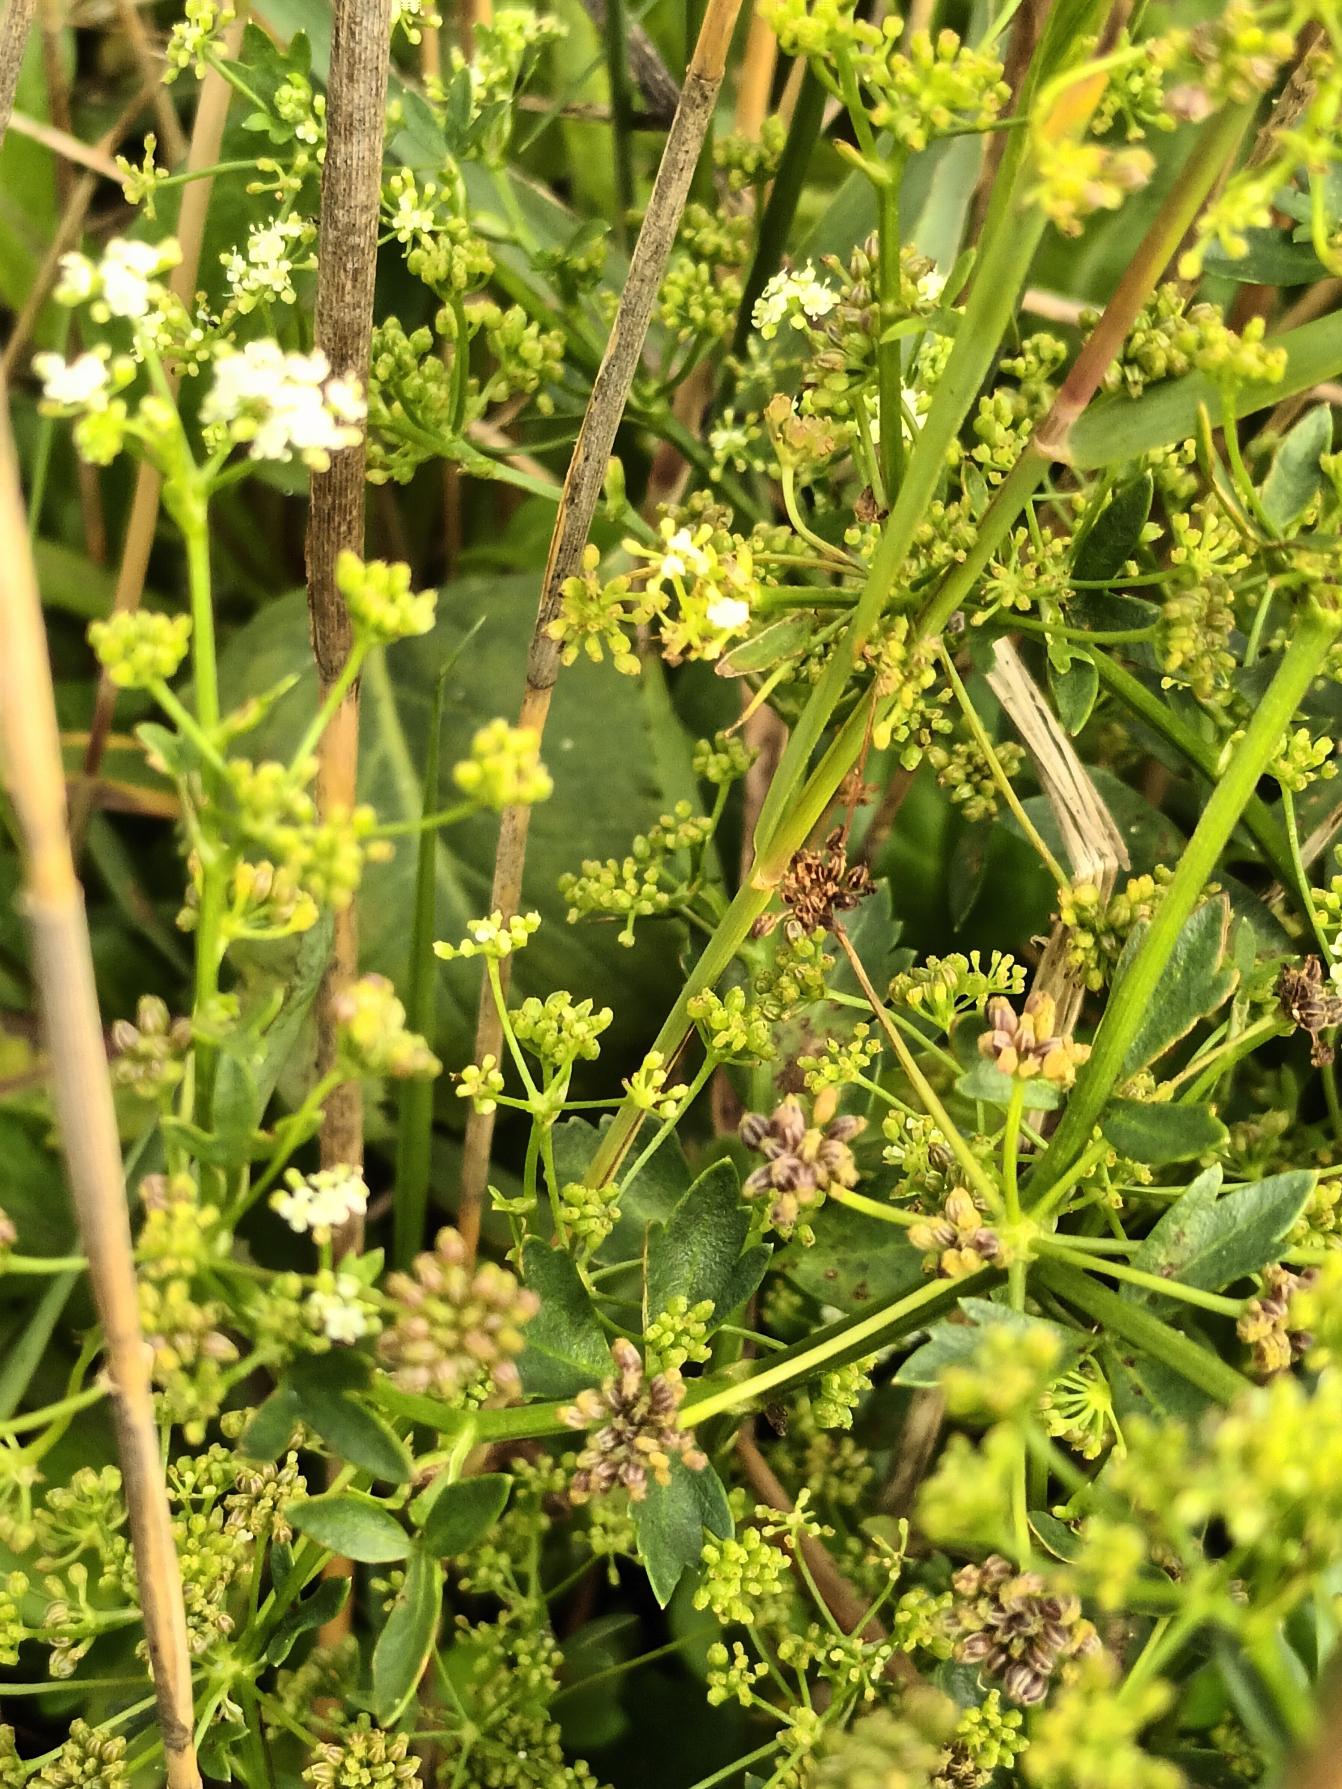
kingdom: Plantae
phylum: Tracheophyta
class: Magnoliopsida
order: Apiales
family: Apiaceae
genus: Apium
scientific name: Apium graveolens
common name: Vild selleri
